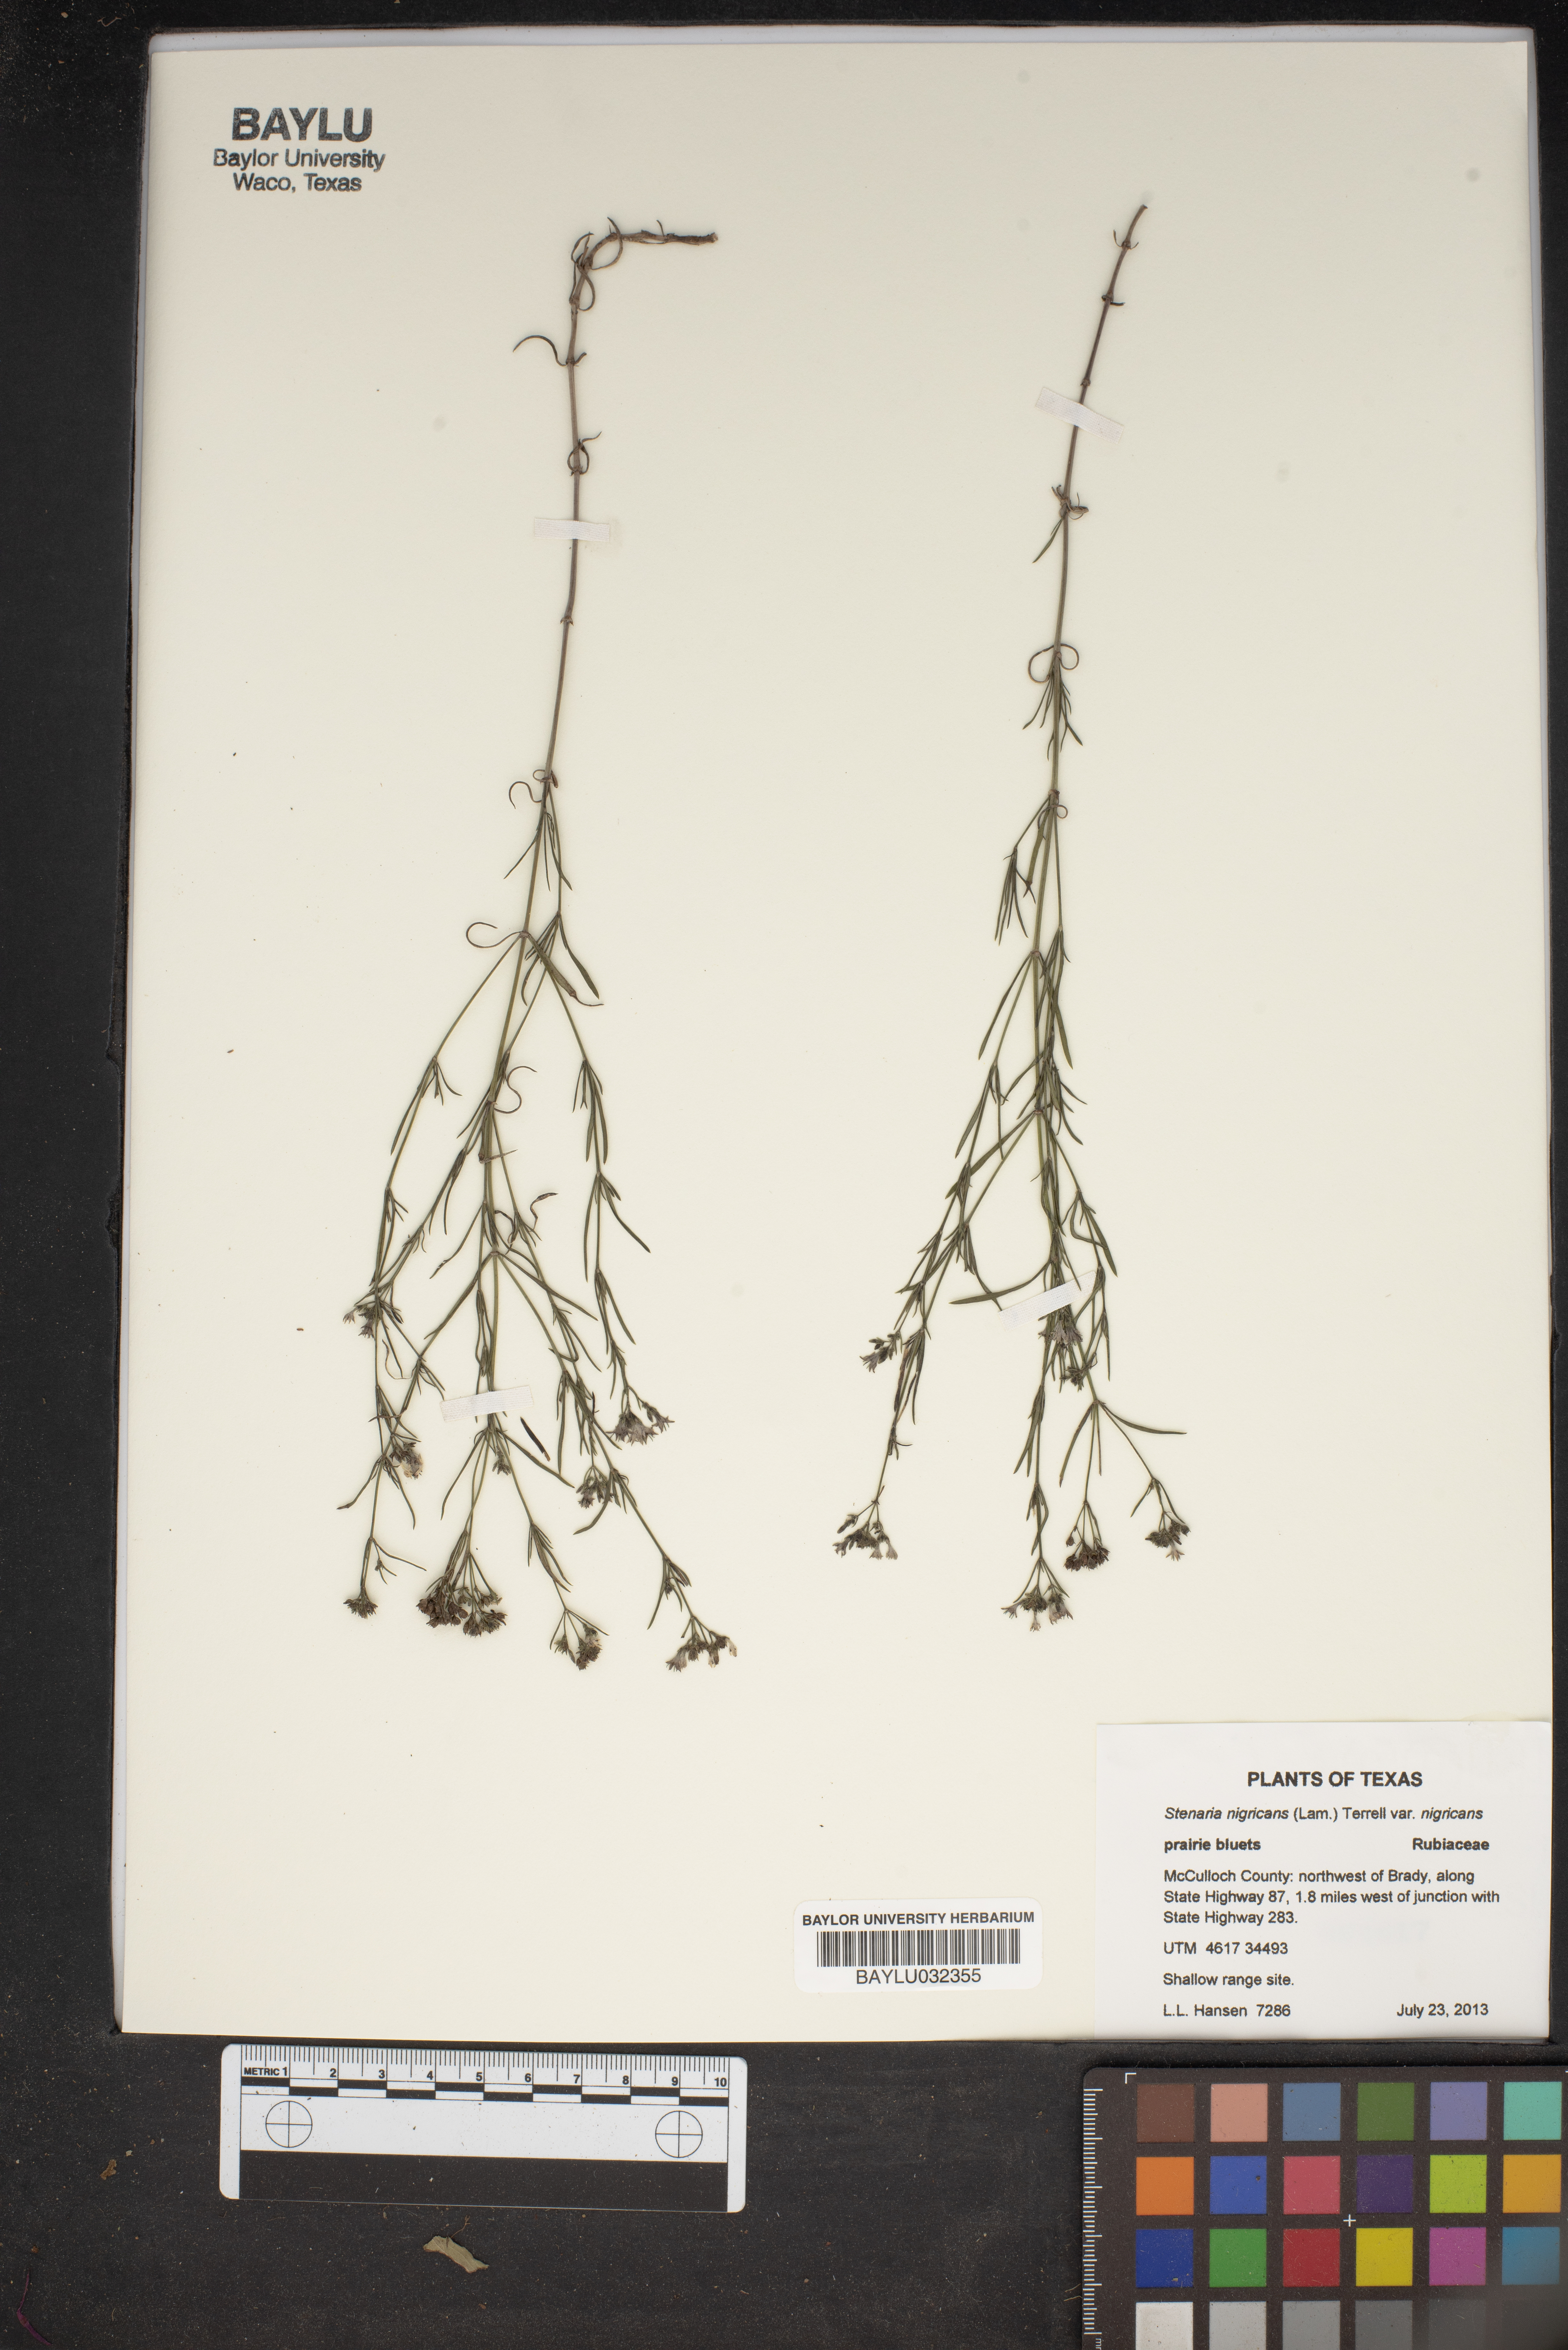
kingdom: Plantae
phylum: Tracheophyta
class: Magnoliopsida
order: Gentianales
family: Rubiaceae
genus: Stenaria
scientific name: Stenaria nigricans
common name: Diamondflowers
